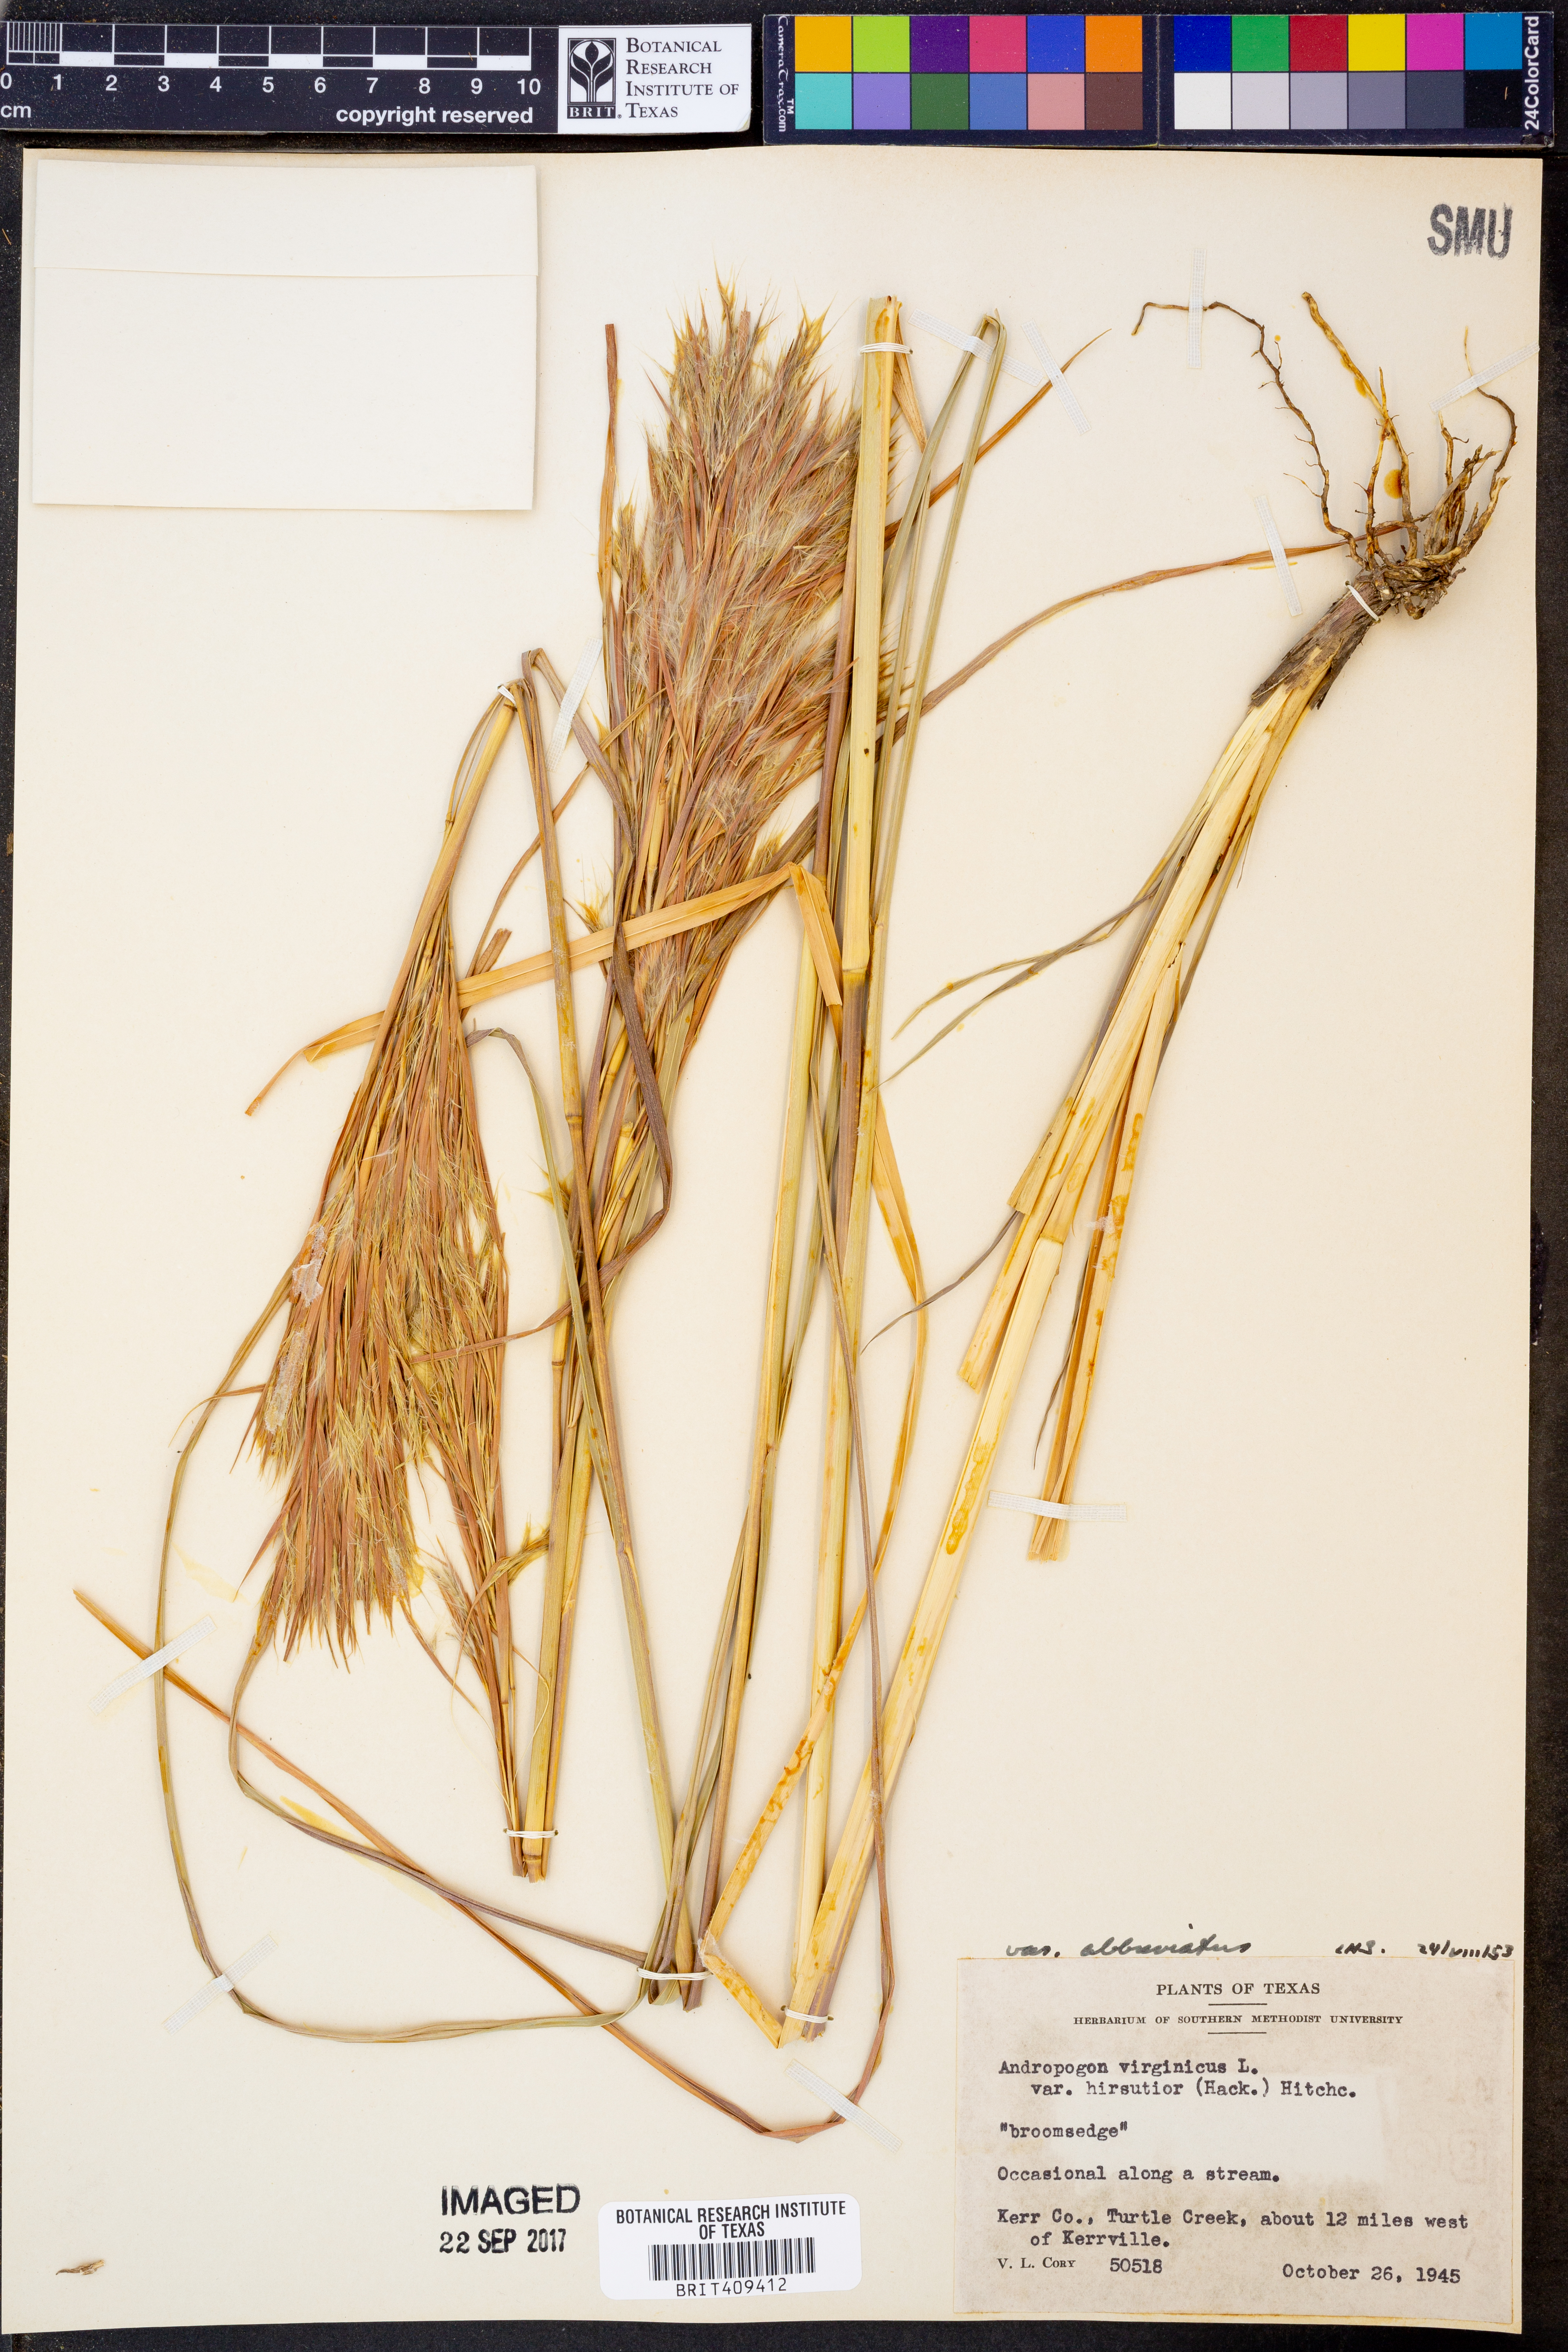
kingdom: Plantae
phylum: Tracheophyta
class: Liliopsida
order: Poales
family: Poaceae
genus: Andropogon
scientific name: Andropogon glomeratus
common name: Bushy beard grass
